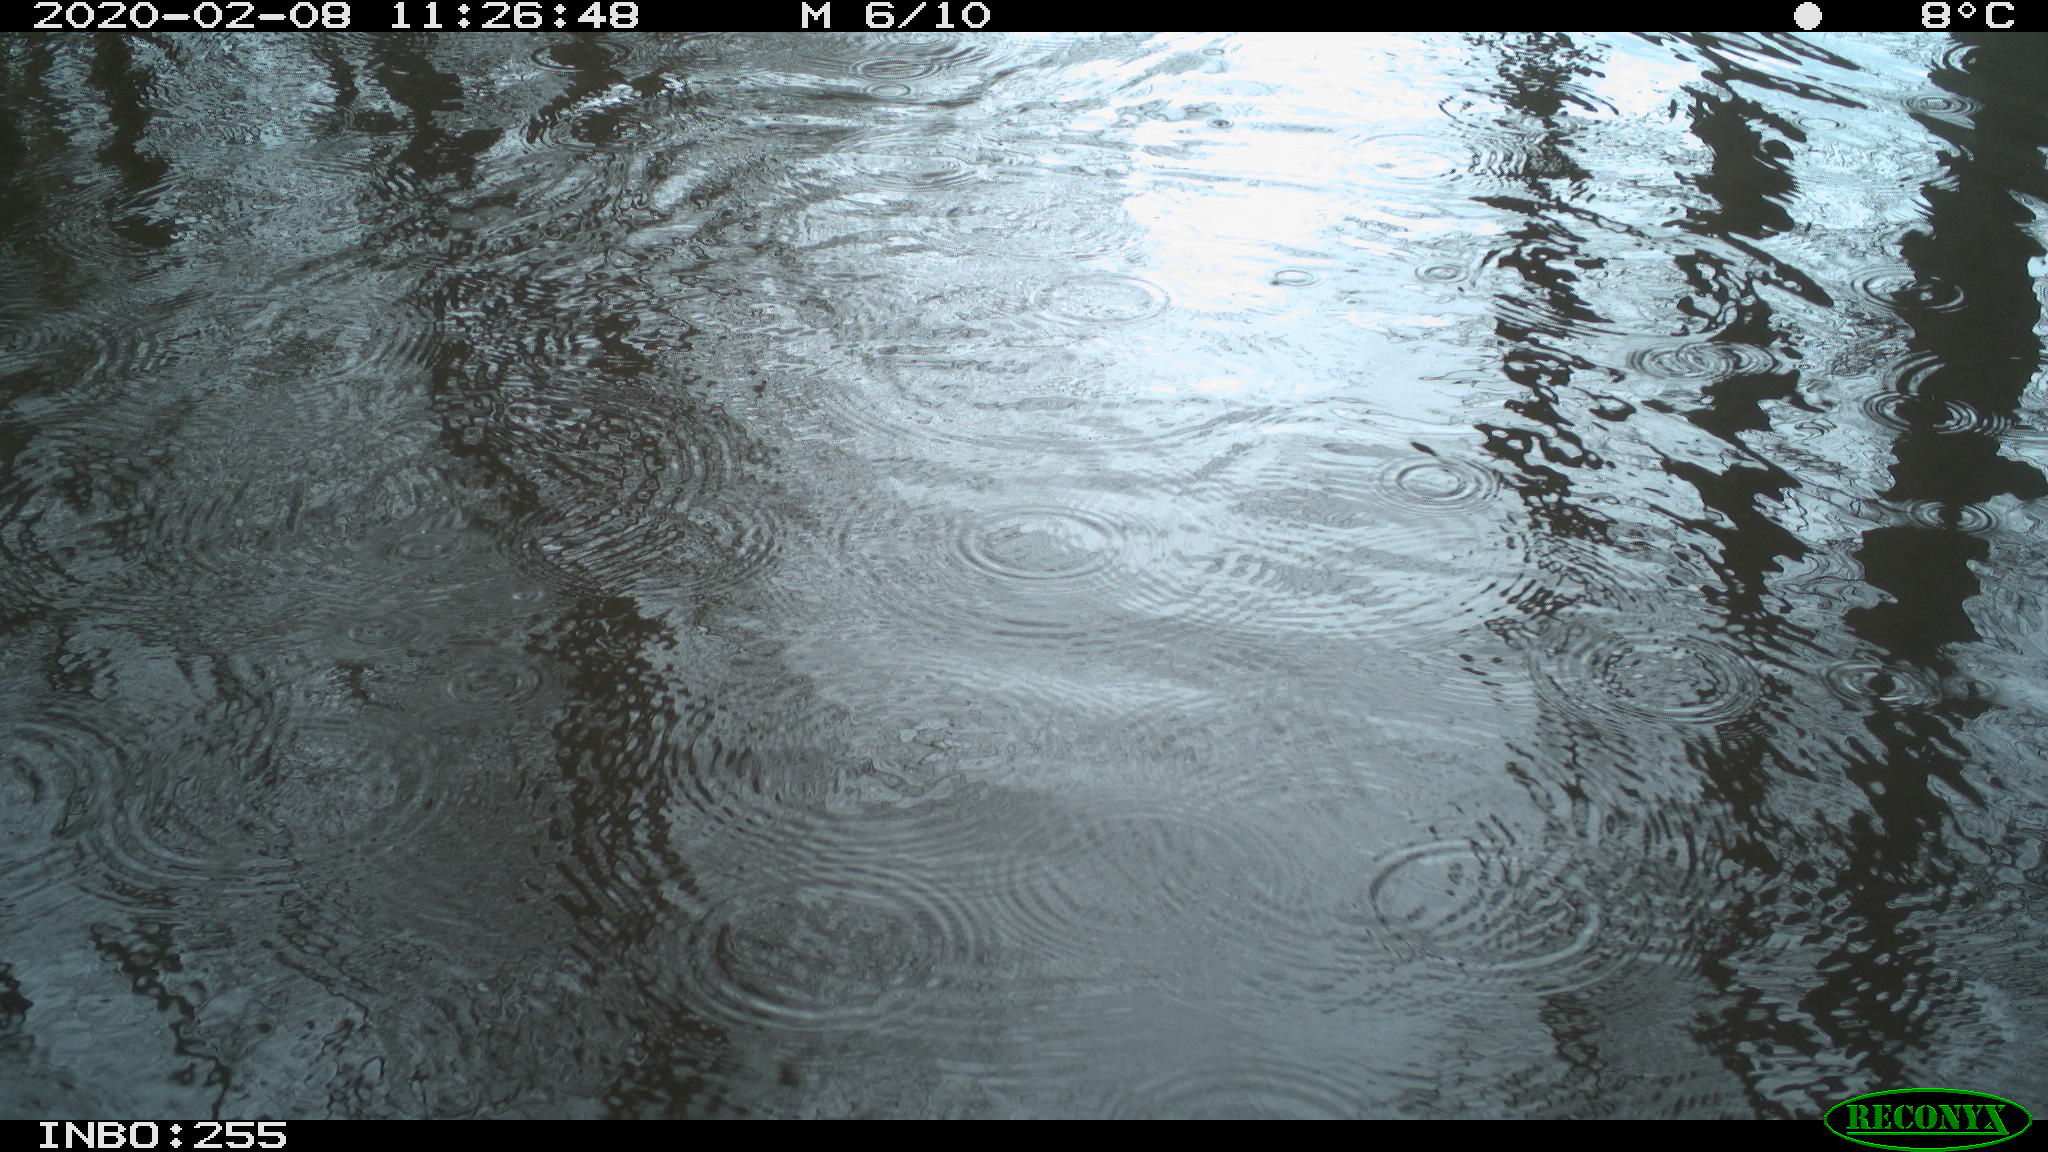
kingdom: Animalia
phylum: Chordata
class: Aves
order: Gruiformes
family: Rallidae
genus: Fulica
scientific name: Fulica atra
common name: Eurasian coot
